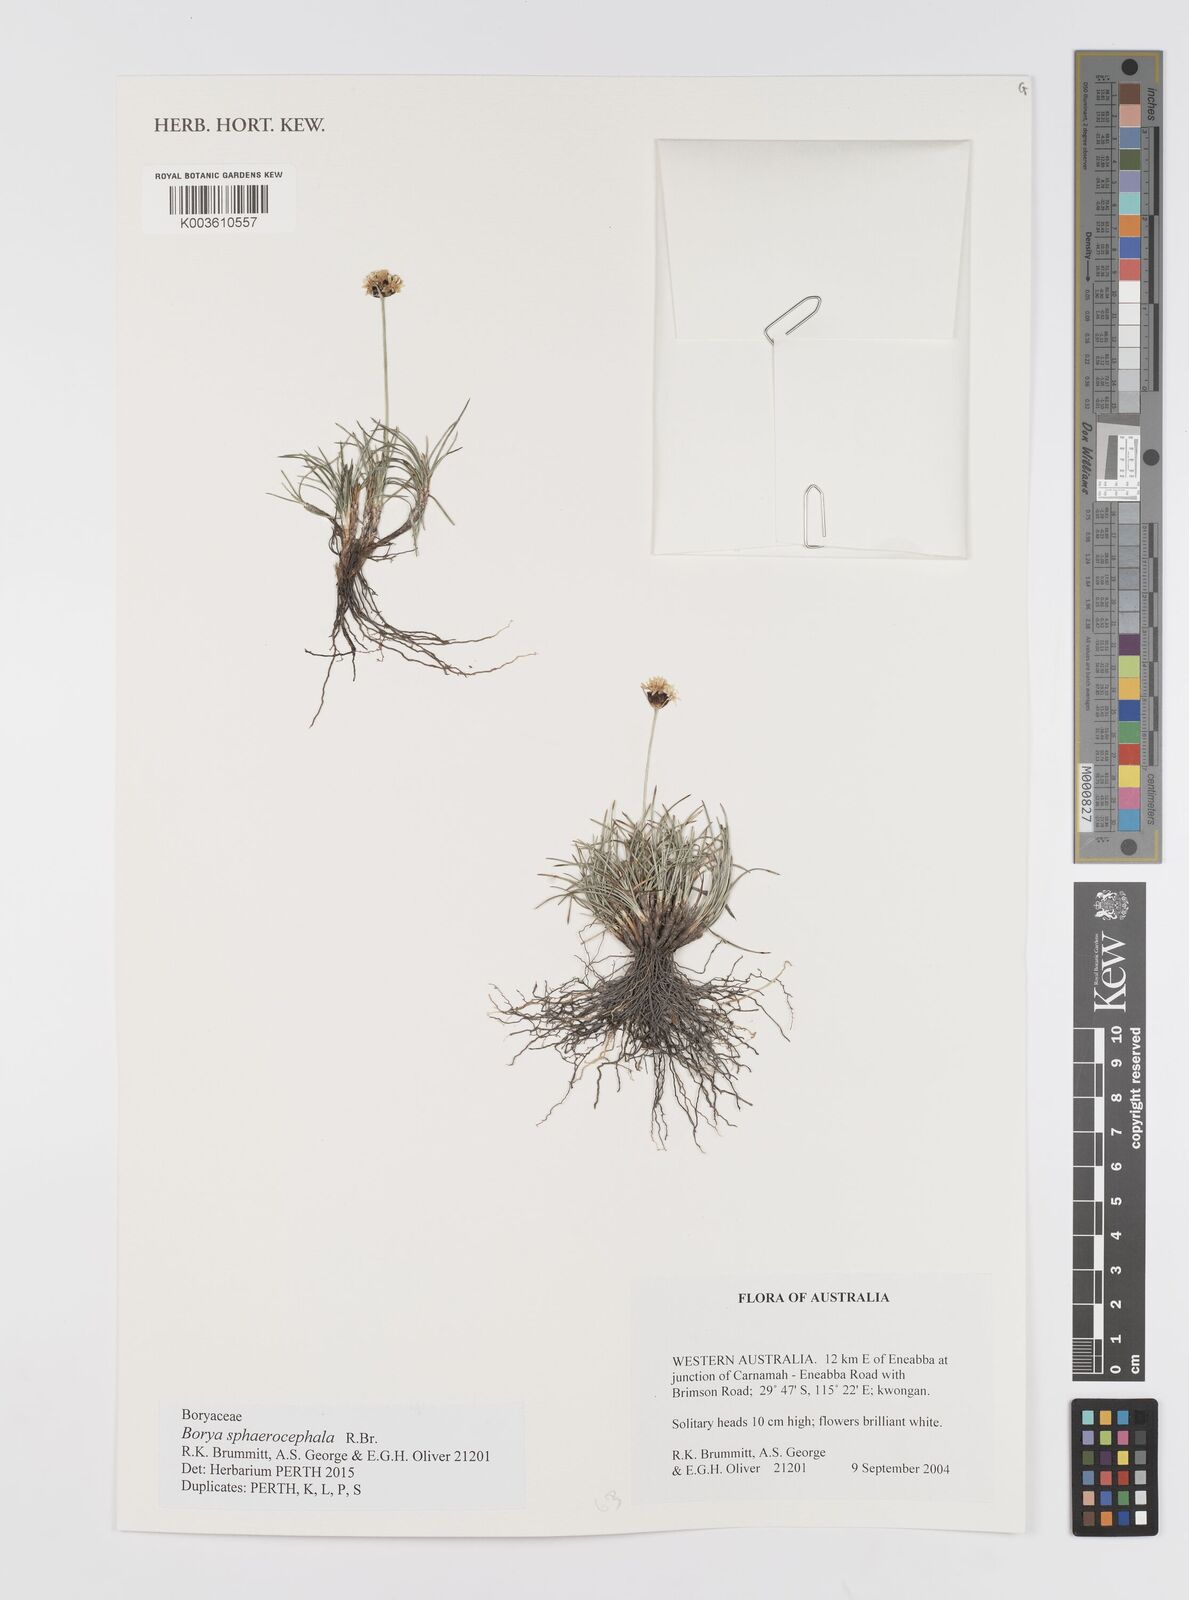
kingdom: Plantae
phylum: Tracheophyta
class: Liliopsida
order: Asparagales
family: Boryaceae
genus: Borya
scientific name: Borya sphaerocephala
